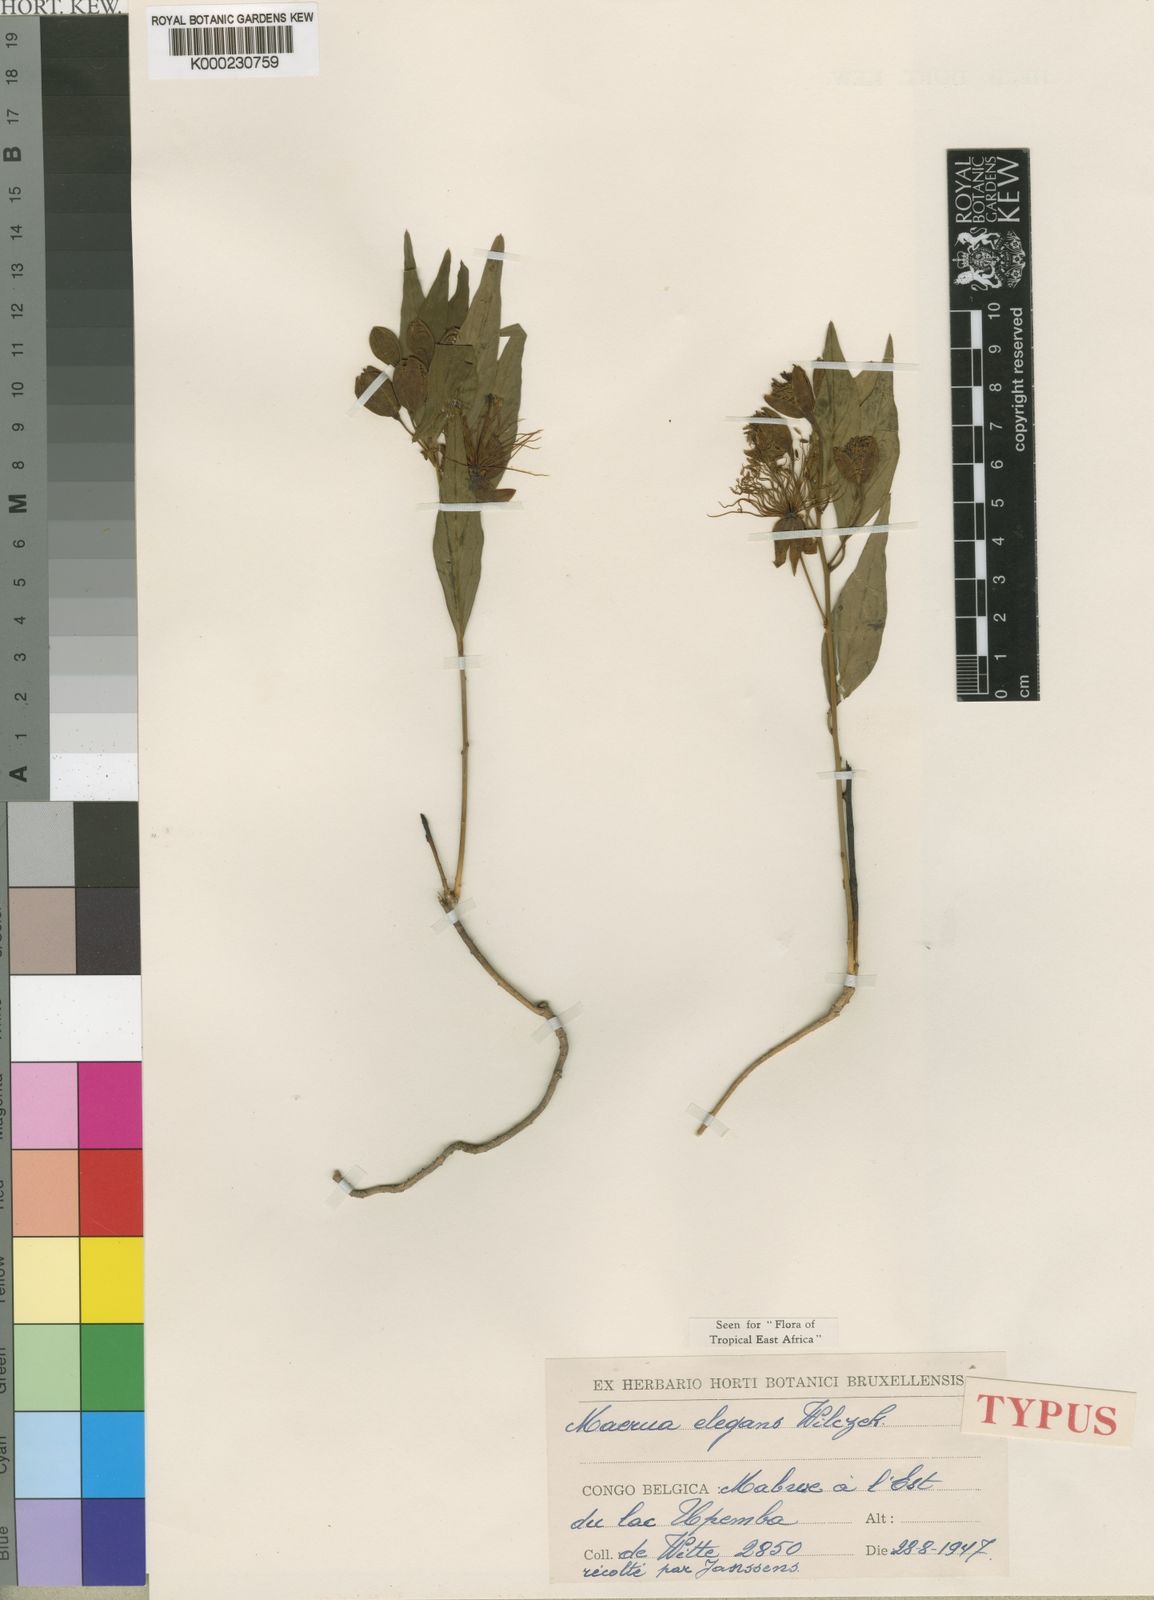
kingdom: Plantae
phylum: Tracheophyta
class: Magnoliopsida
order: Brassicales
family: Capparaceae
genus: Maerua
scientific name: Maerua elegans
